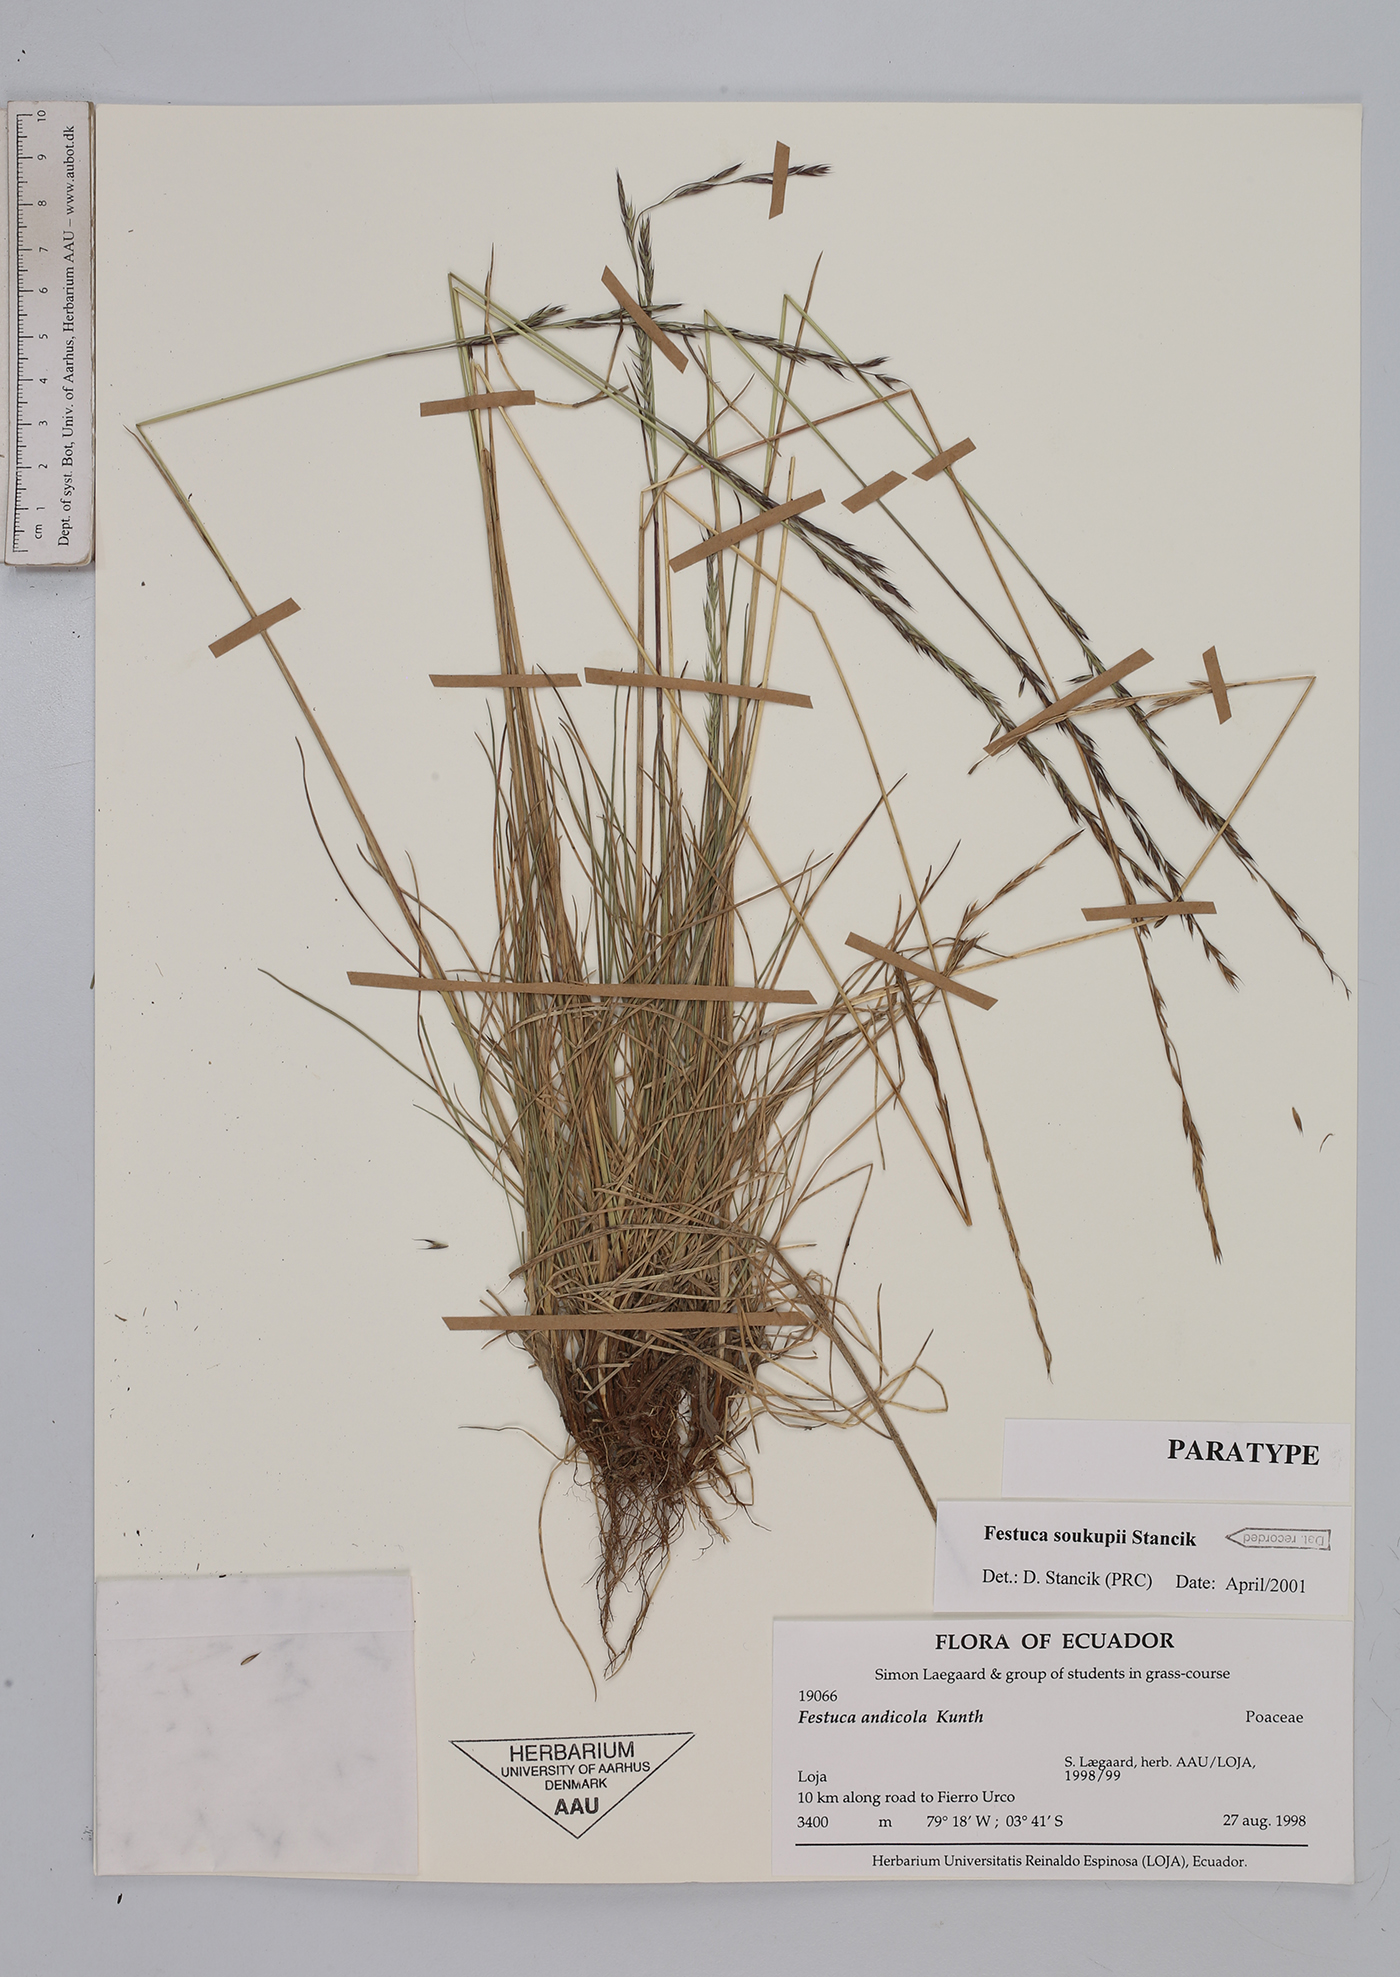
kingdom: Plantae
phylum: Tracheophyta
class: Liliopsida
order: Poales
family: Poaceae
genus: Festuca
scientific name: Festuca soukupii
